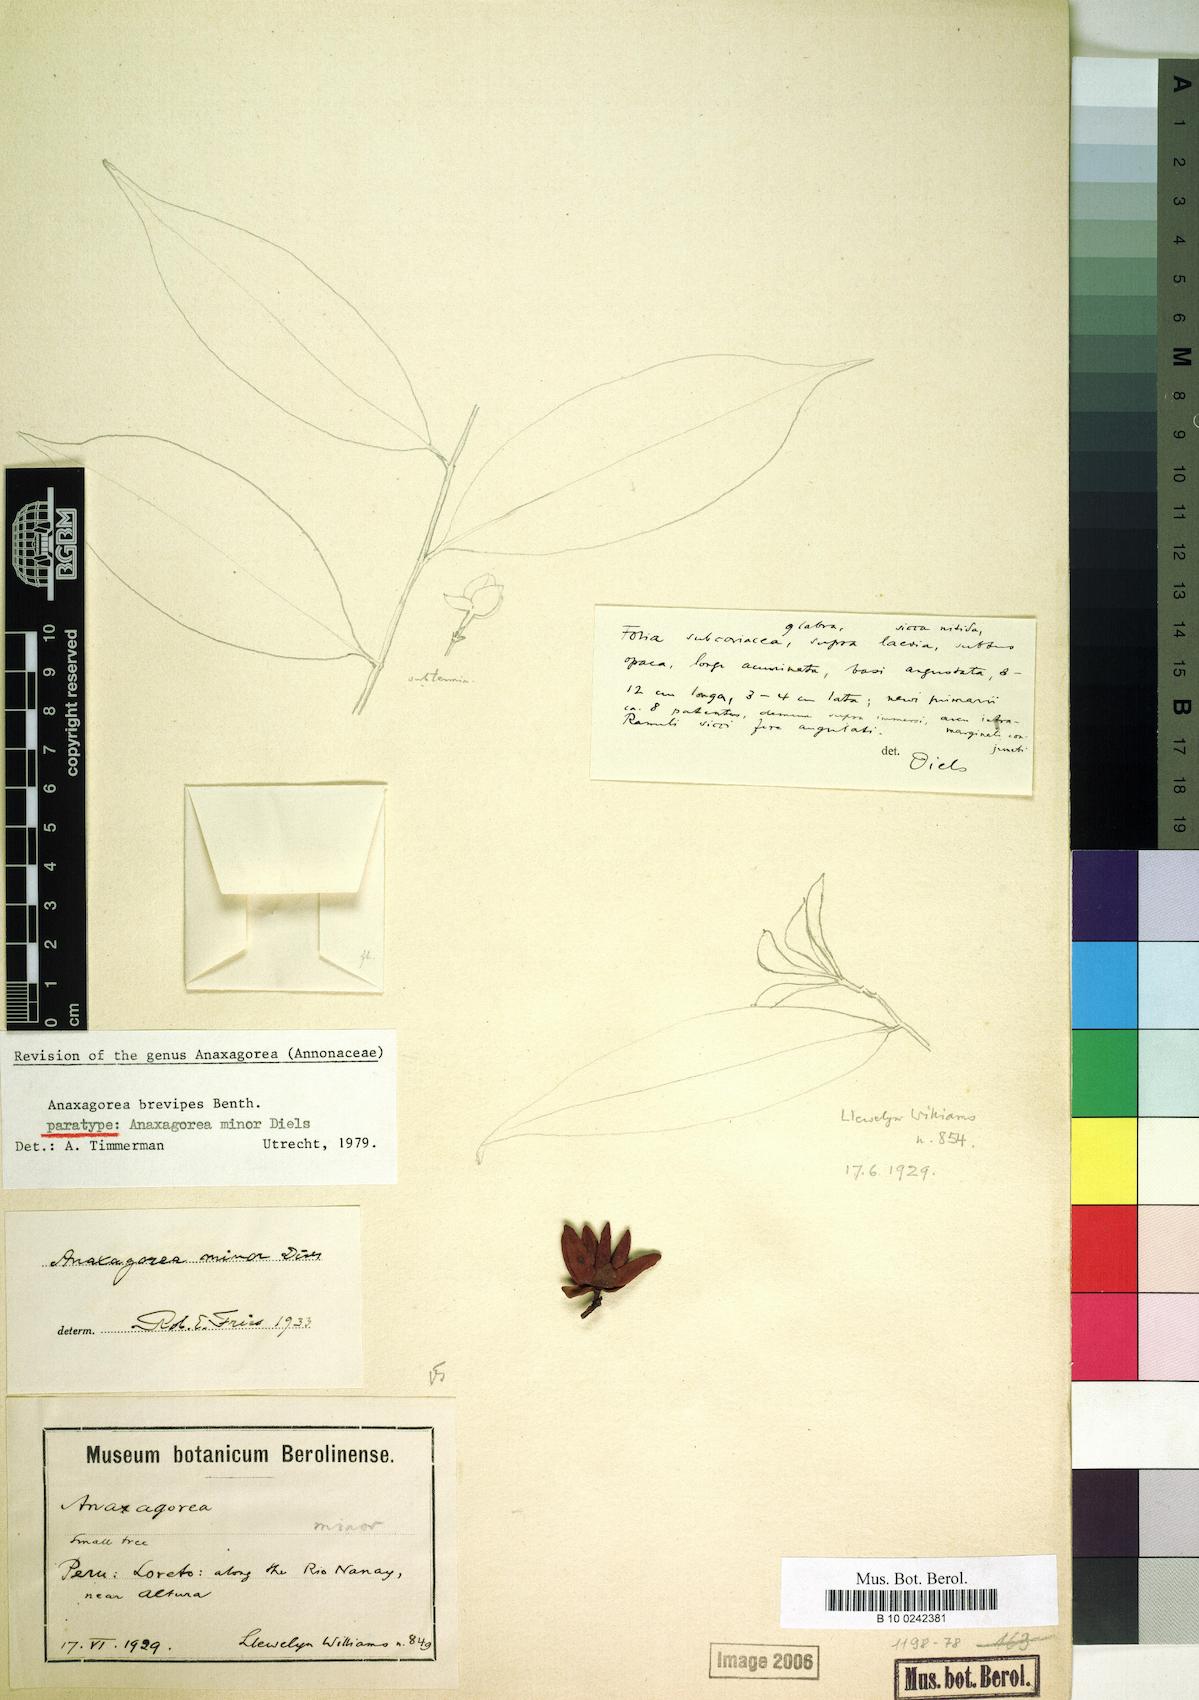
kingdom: Plantae
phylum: Tracheophyta
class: Magnoliopsida
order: Magnoliales
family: Annonaceae
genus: Anaxagorea
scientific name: Anaxagorea brevipes
